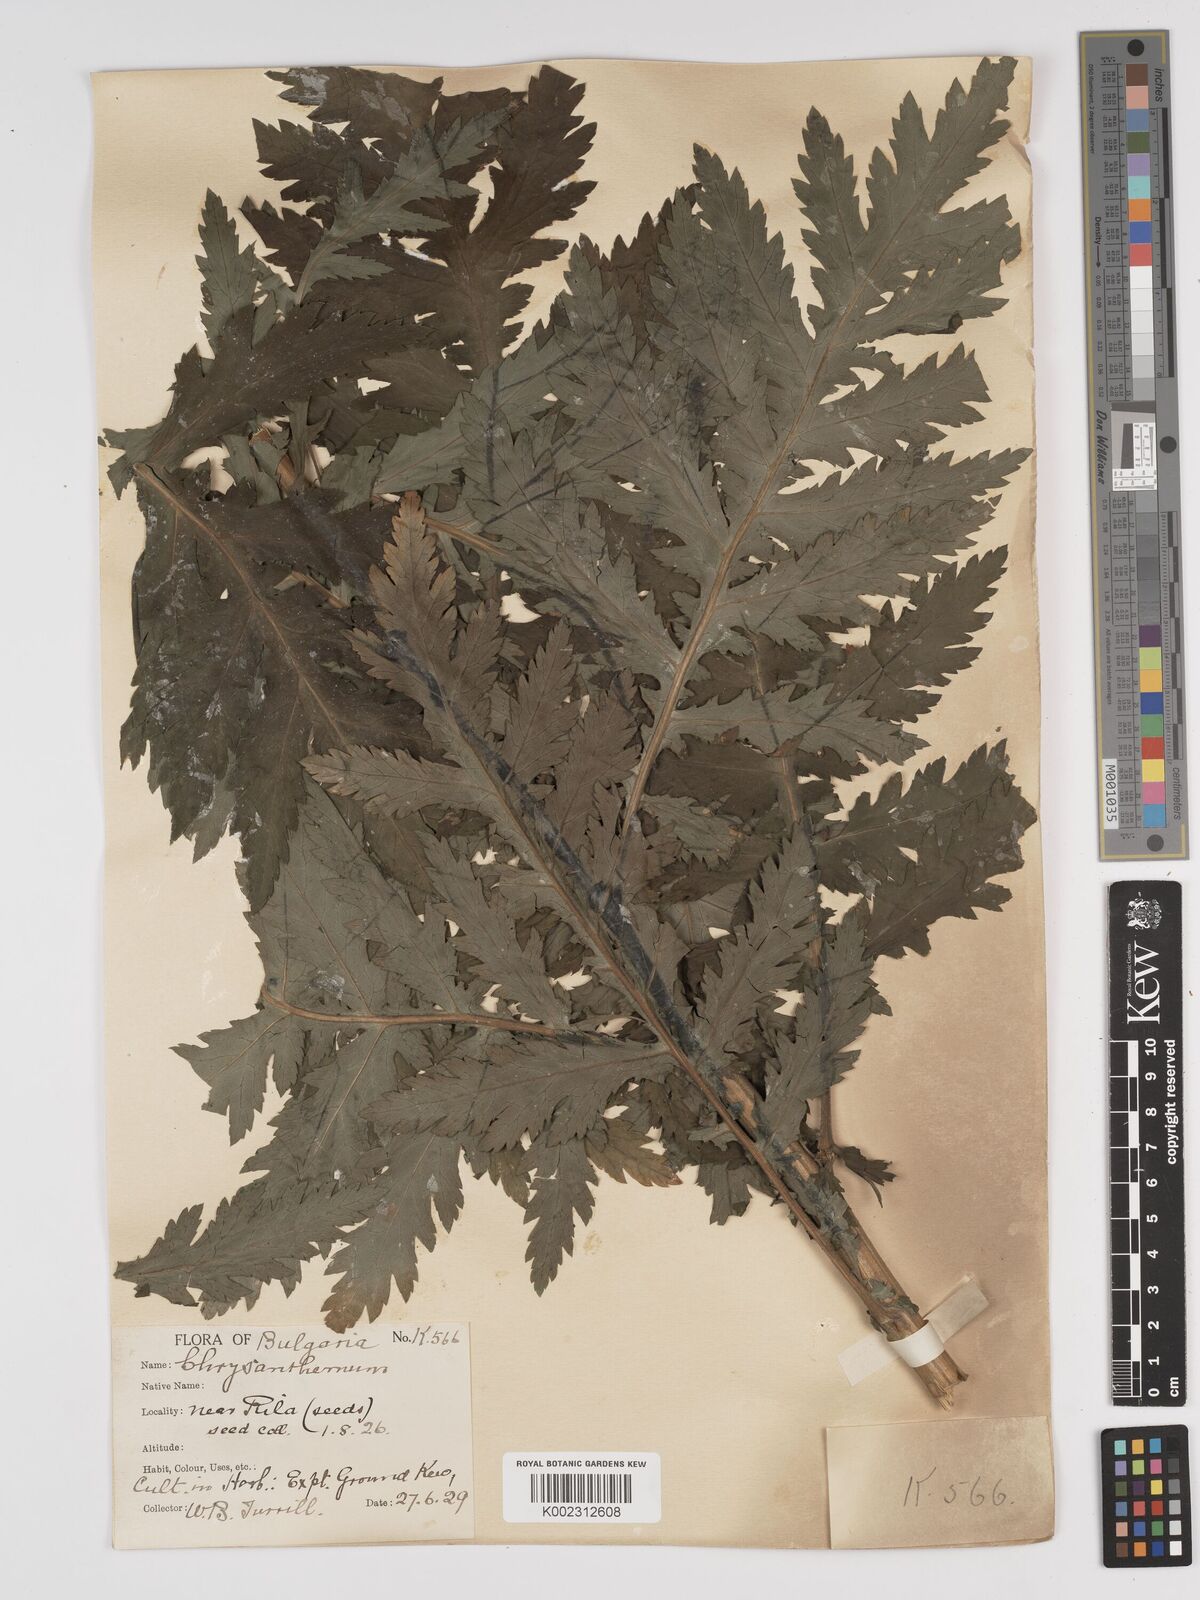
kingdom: Plantae
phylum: Tracheophyta
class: Magnoliopsida
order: Asterales
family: Asteraceae
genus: Tanacetum
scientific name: Tanacetum macrophyllum
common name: Rayed tansy
